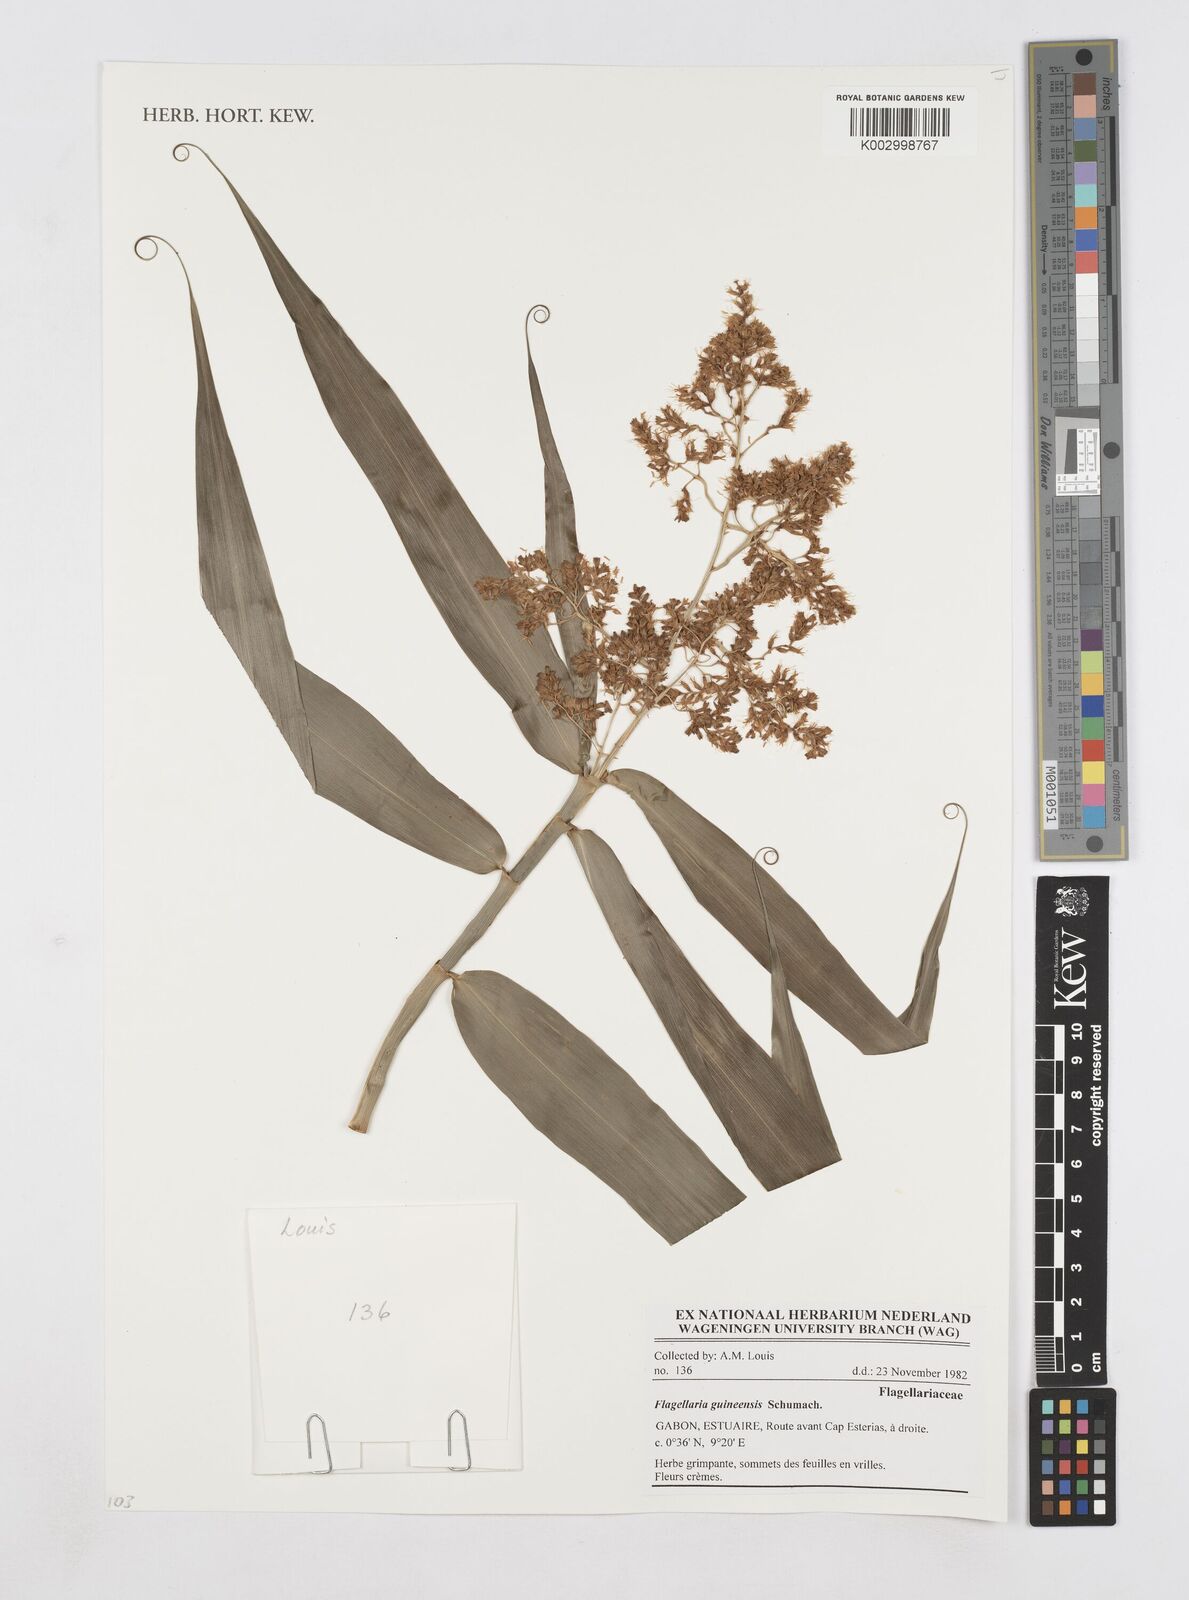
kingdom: Plantae
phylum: Tracheophyta
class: Liliopsida
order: Poales
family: Flagellariaceae
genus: Flagellaria
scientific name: Flagellaria guineensis
